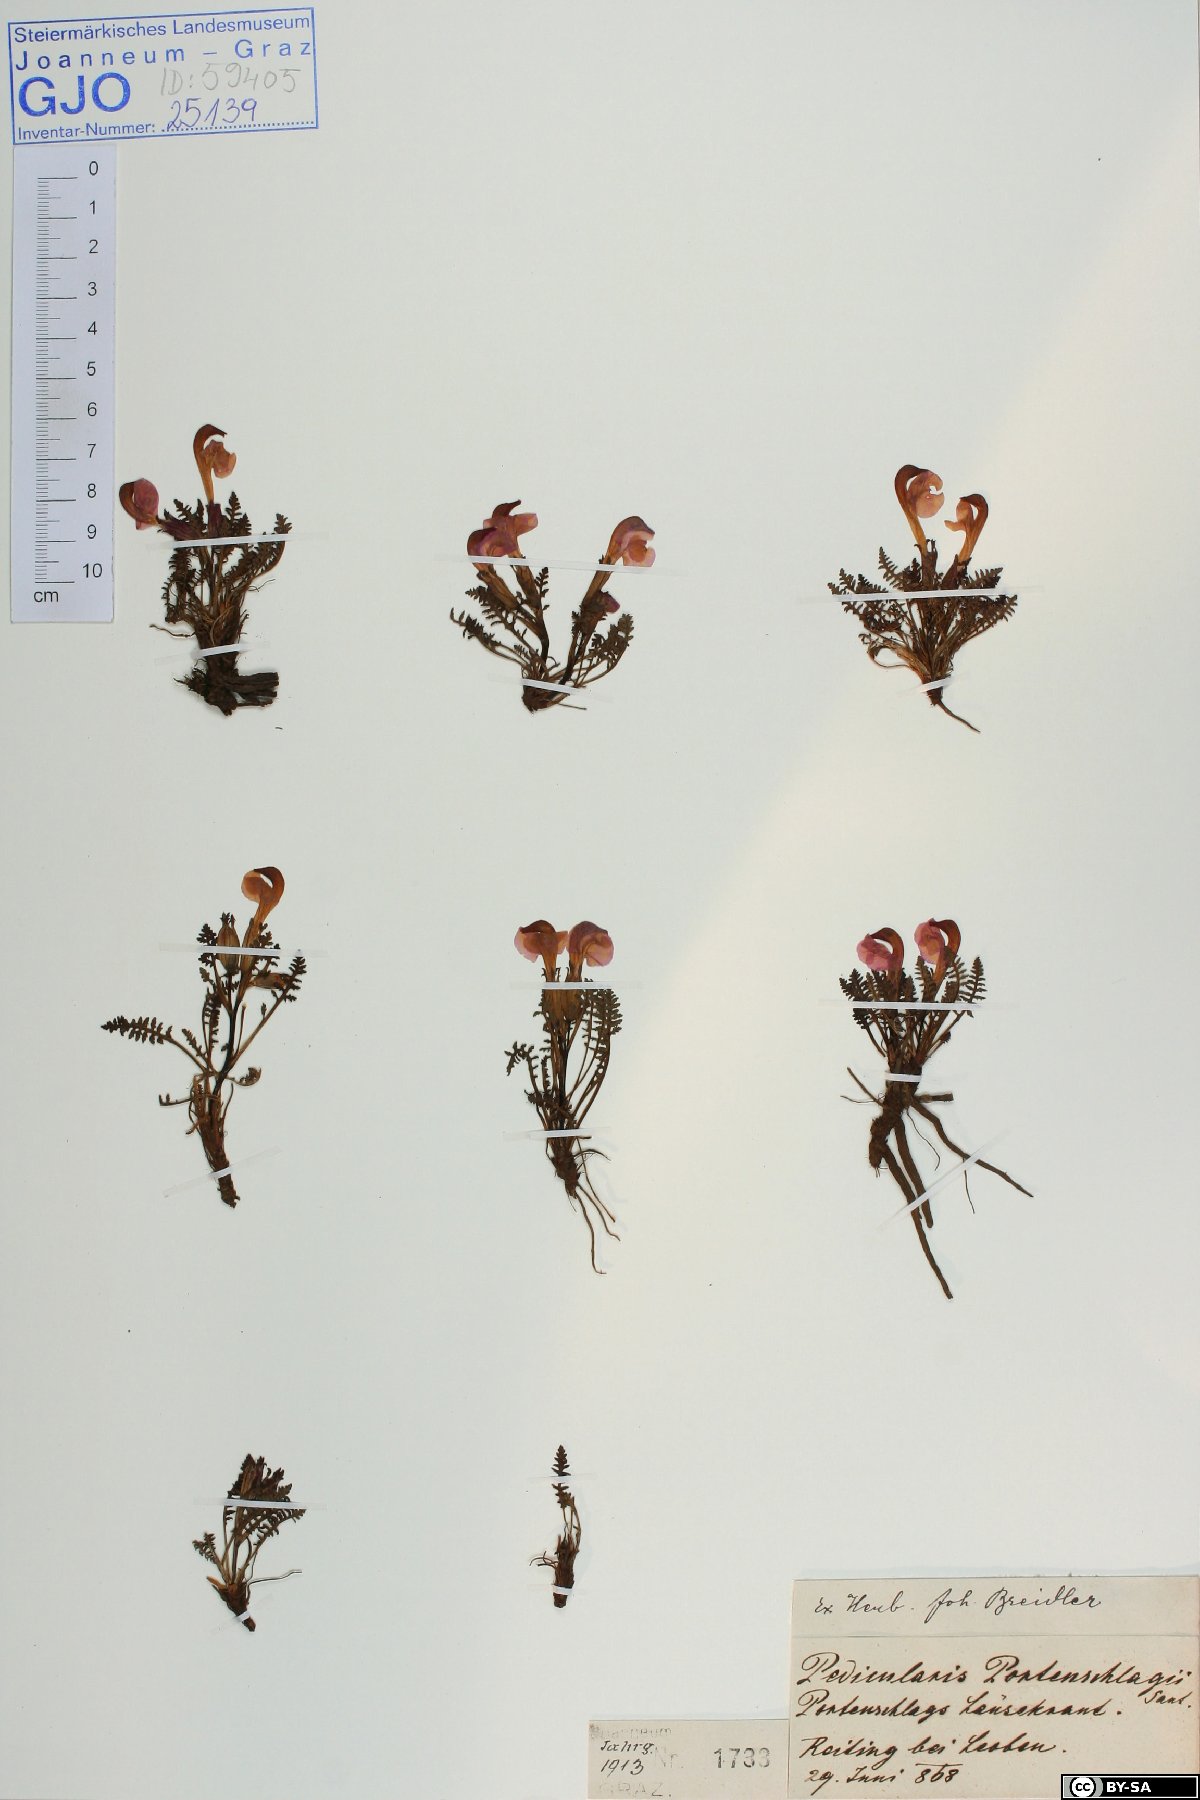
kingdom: Plantae
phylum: Tracheophyta
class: Magnoliopsida
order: Asterales
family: Asteraceae
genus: Jacobaea
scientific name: Jacobaea paludosa
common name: Fen ragwort
